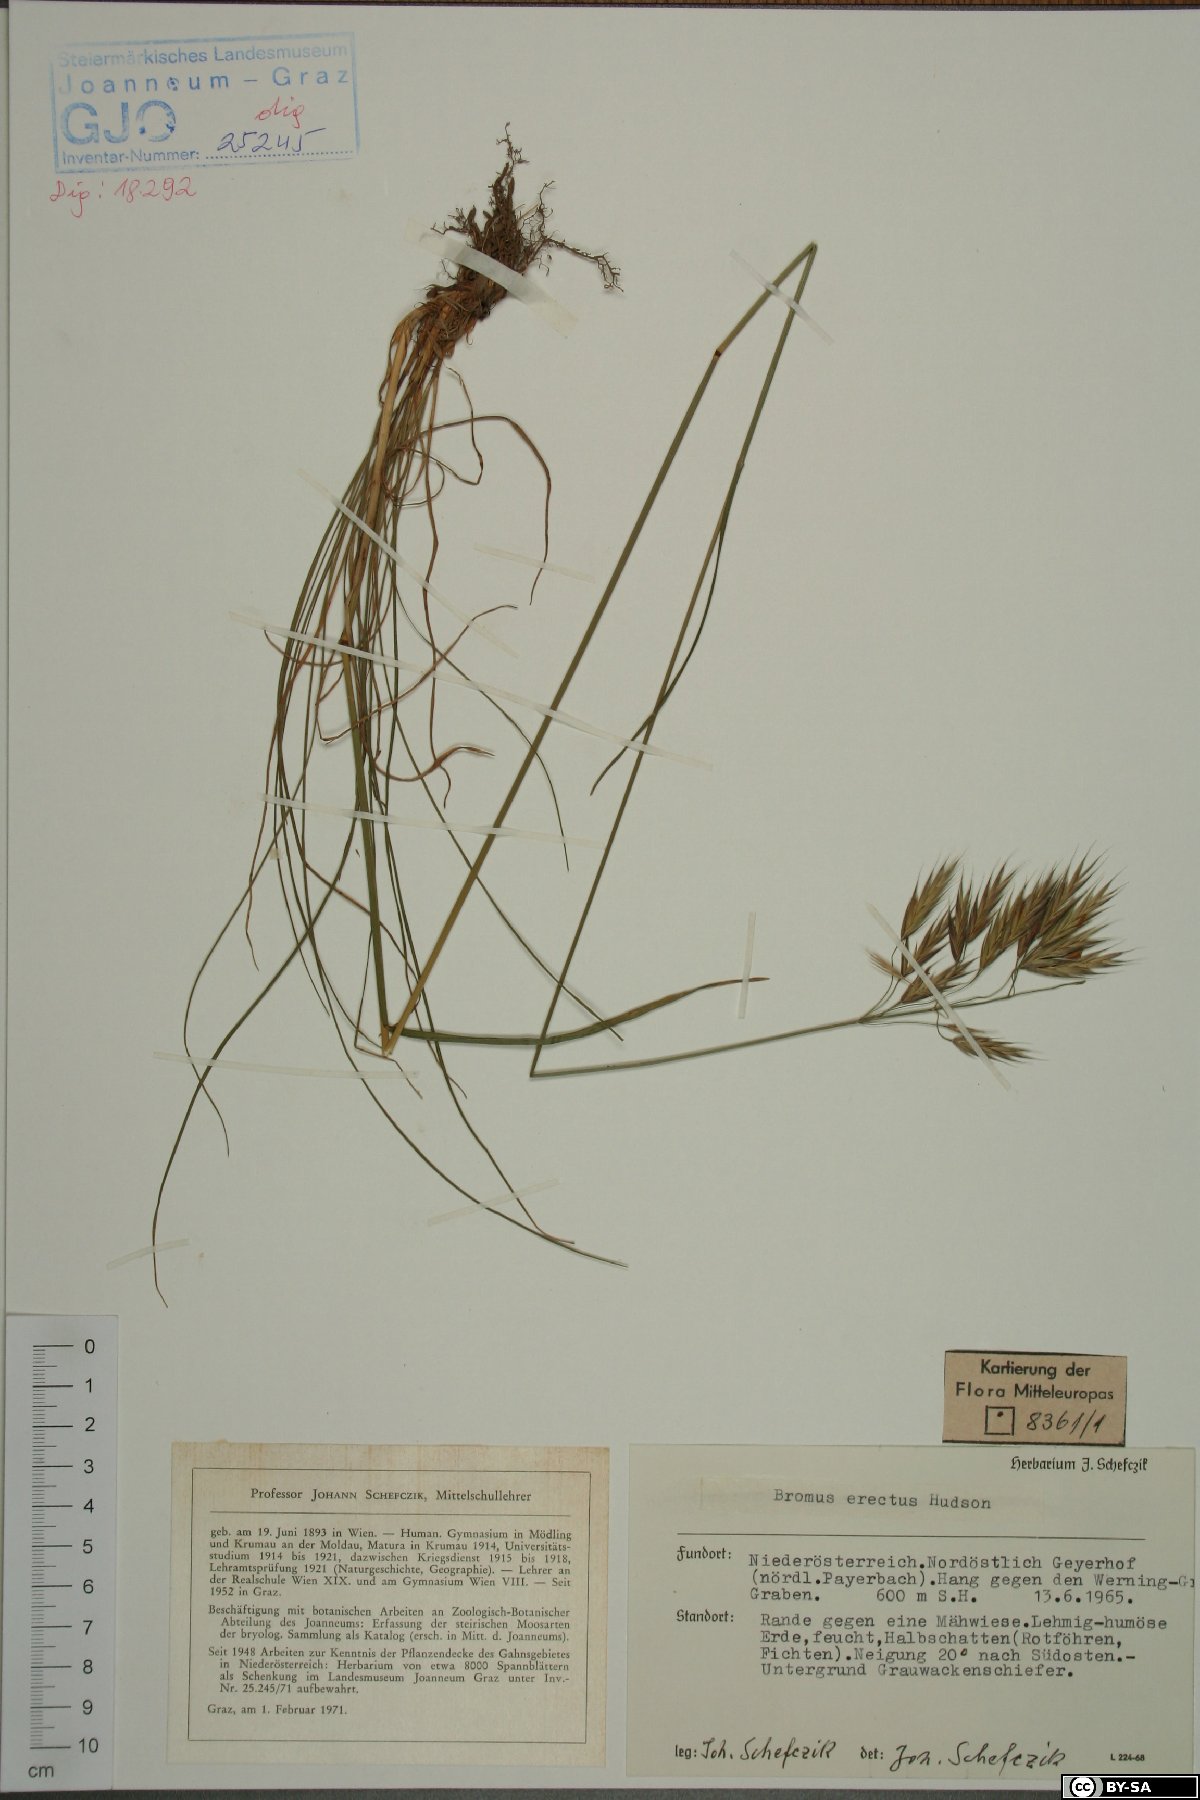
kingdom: Plantae
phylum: Tracheophyta
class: Liliopsida
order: Poales
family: Poaceae
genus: Bromus
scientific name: Bromus erectus
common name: Erect brome
